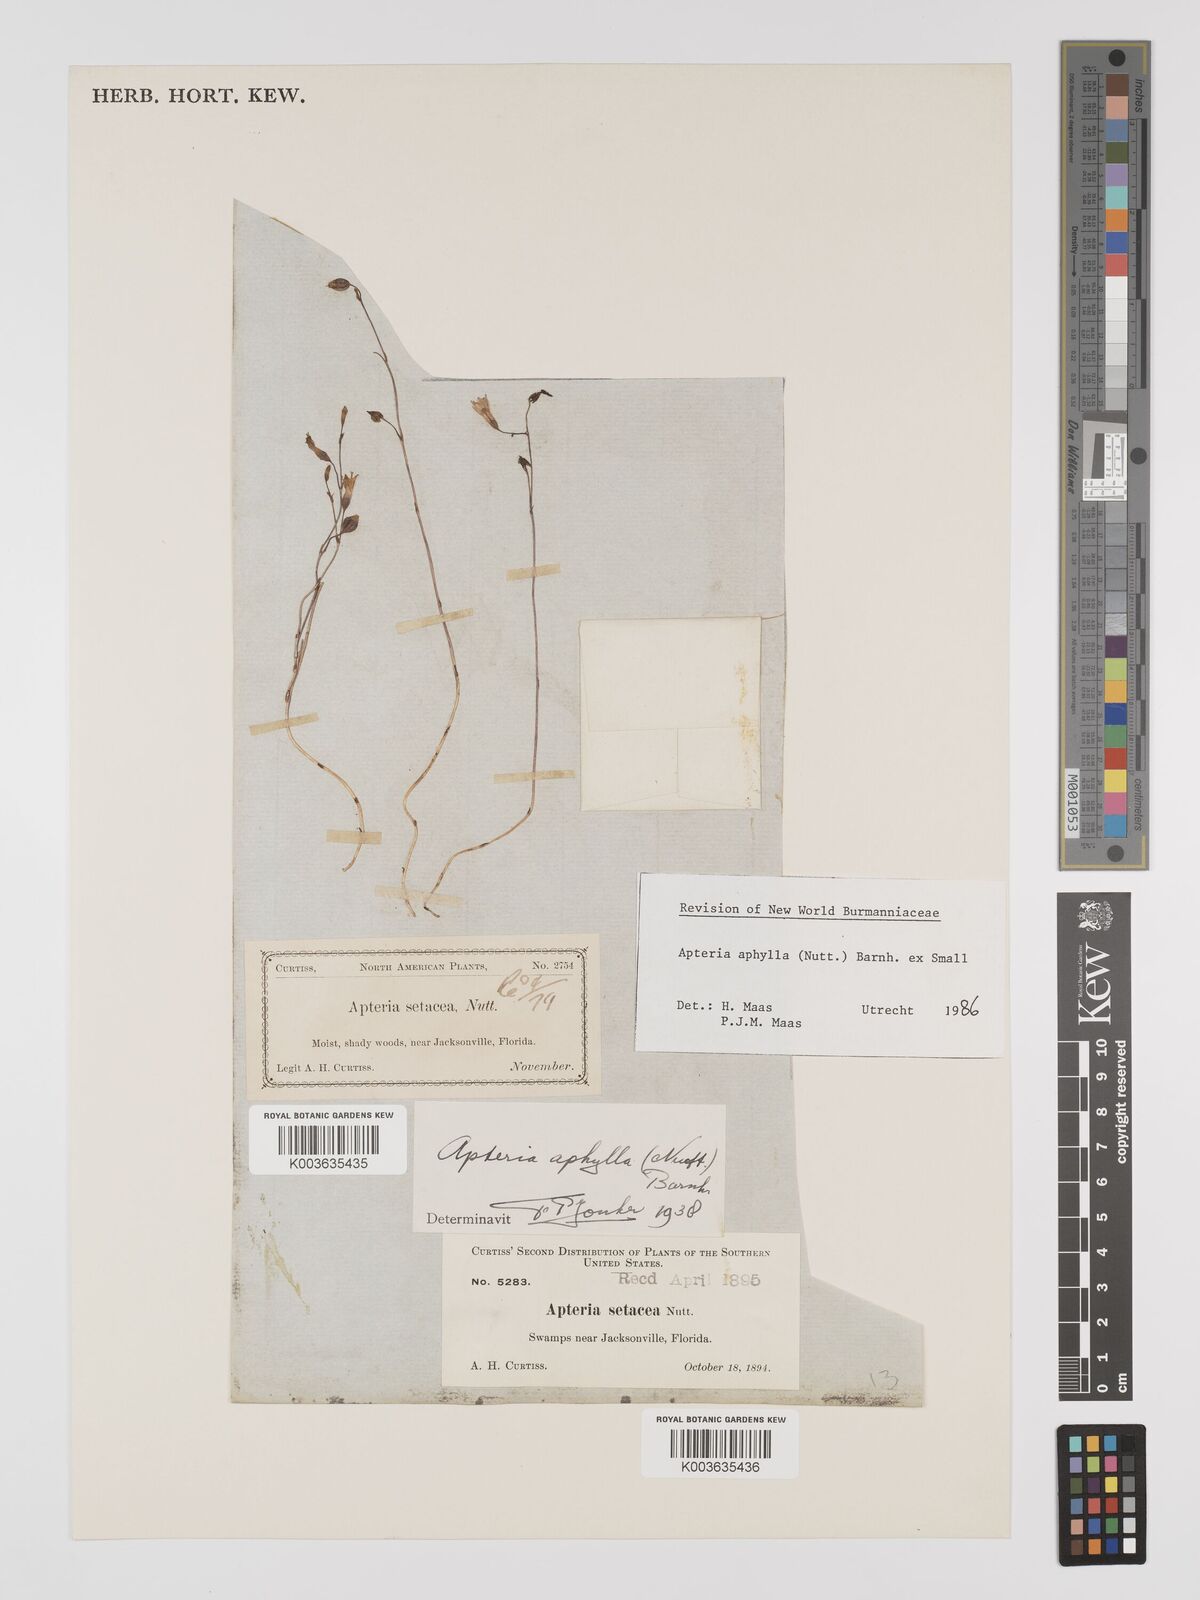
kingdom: Plantae
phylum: Tracheophyta
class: Liliopsida
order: Dioscoreales
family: Burmanniaceae
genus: Apteria
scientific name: Apteria aphylla
